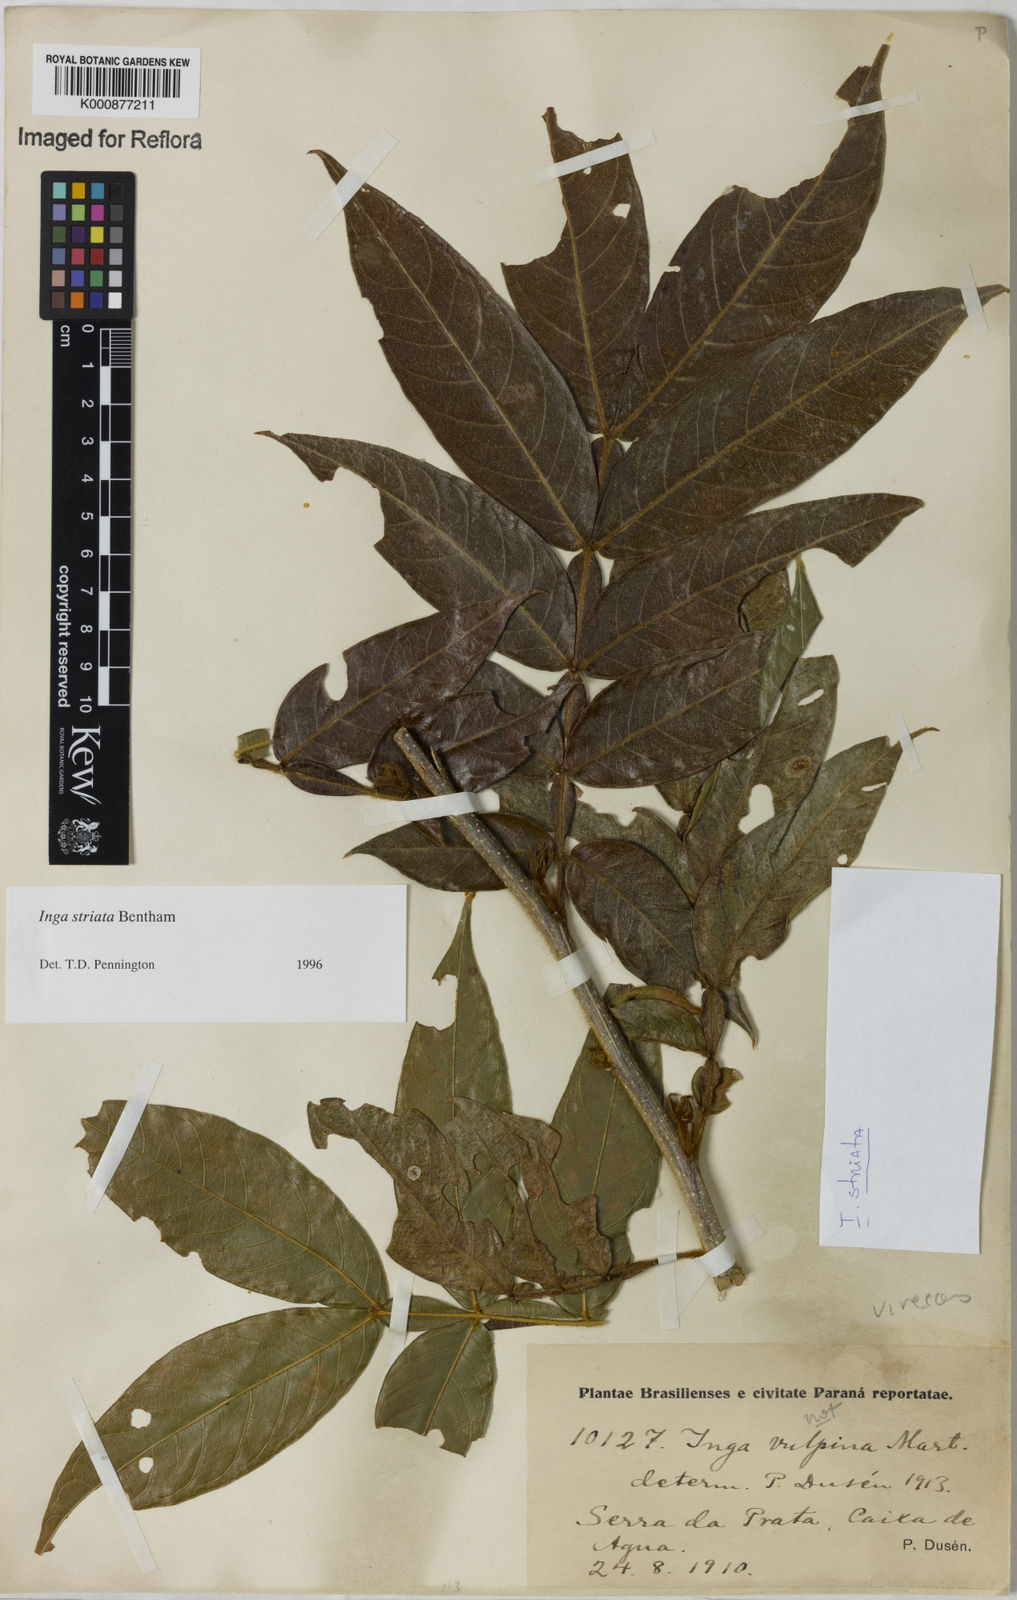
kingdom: Plantae
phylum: Tracheophyta
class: Magnoliopsida
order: Fabales
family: Fabaceae
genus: Inga
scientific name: Inga striata
